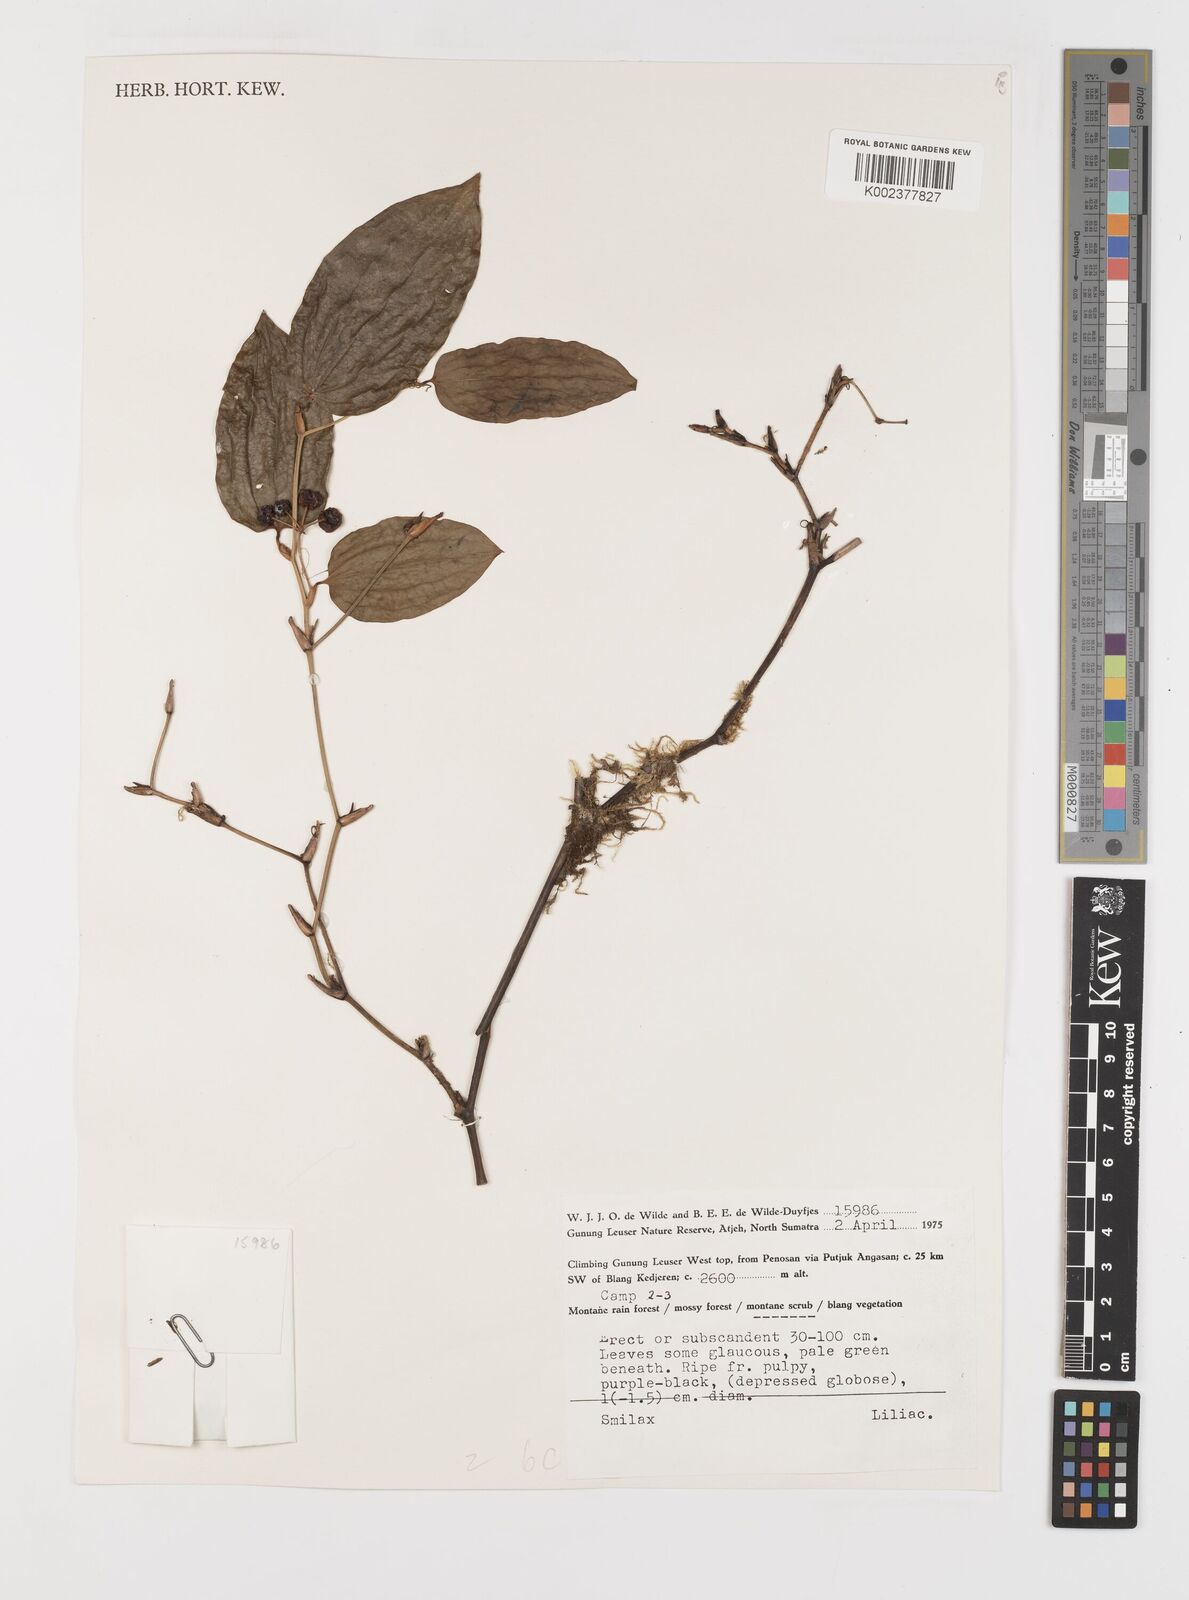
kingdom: Plantae
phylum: Tracheophyta
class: Liliopsida
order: Liliales
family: Smilacaceae
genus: Smilax
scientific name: Smilax
